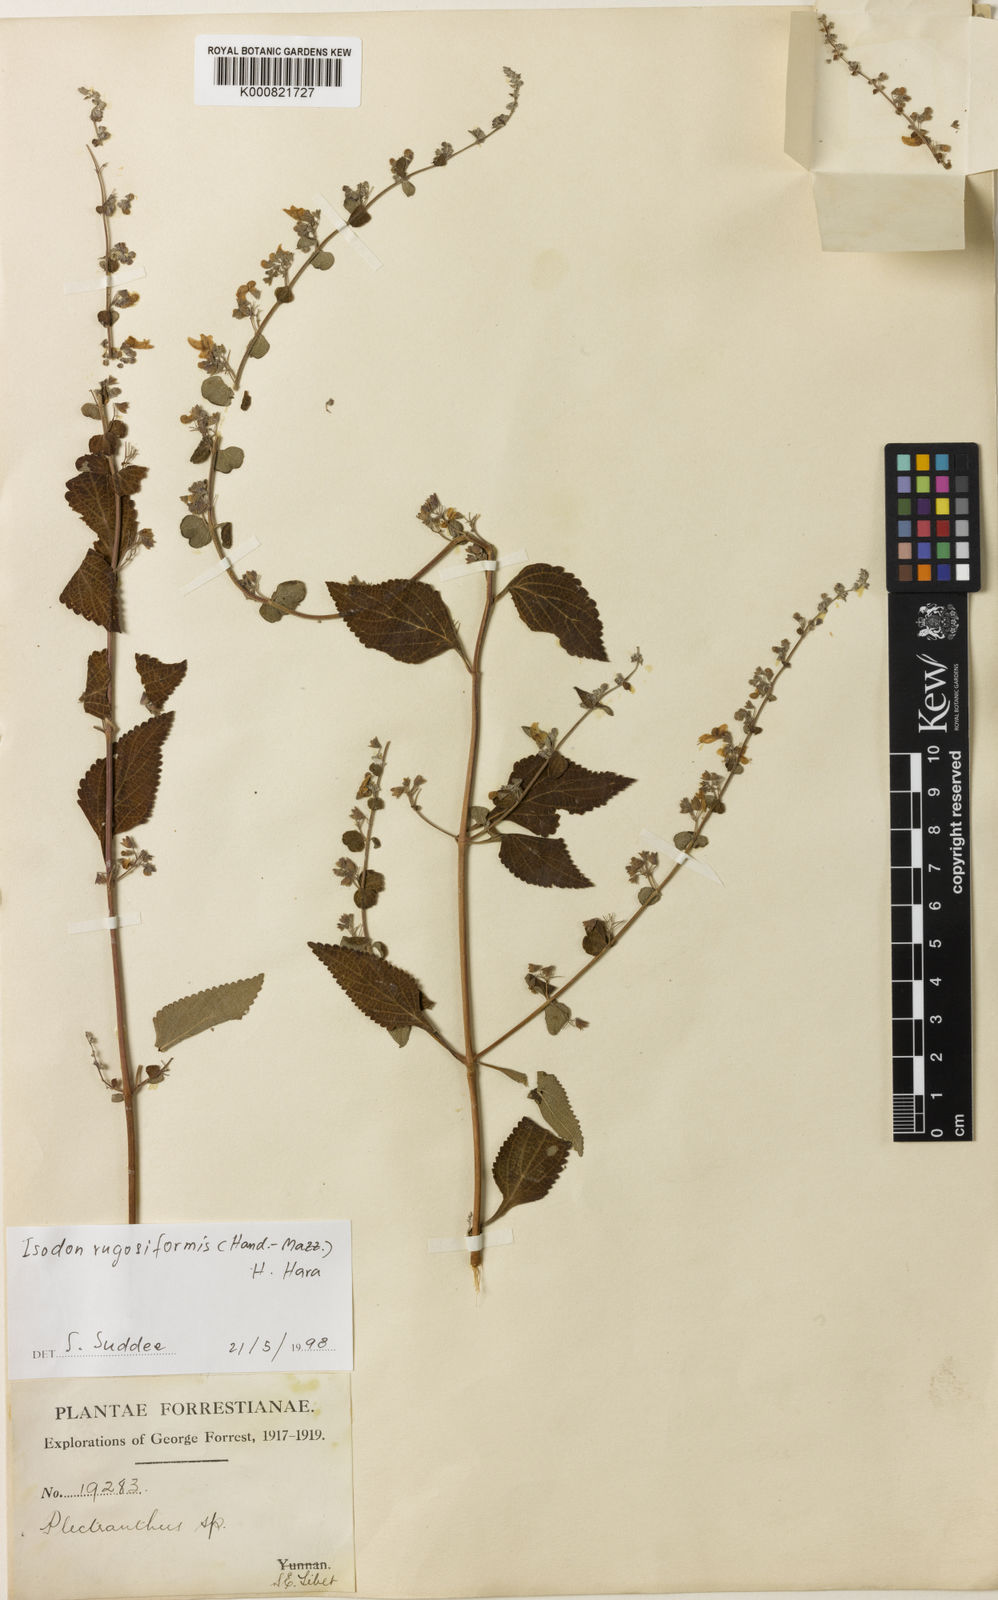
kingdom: Plantae
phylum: Tracheophyta
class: Magnoliopsida
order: Lamiales
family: Lamiaceae
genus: Isodon
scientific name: Isodon rugosiformis
